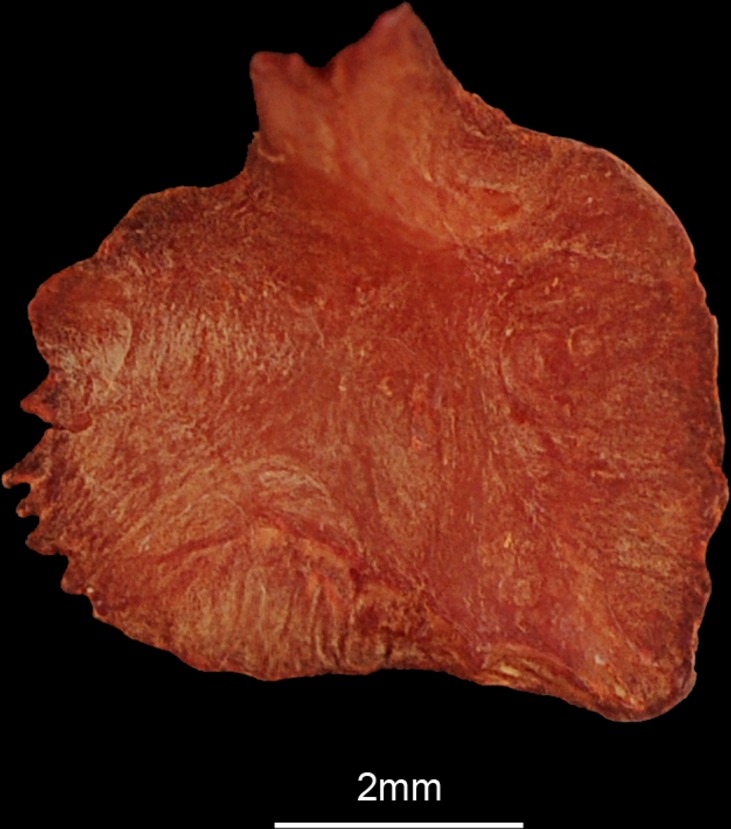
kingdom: Animalia
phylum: Chordata
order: Scorpaeniformes
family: Scorpaenidae
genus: Pterois
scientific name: Pterois volitans
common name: Lionfish
